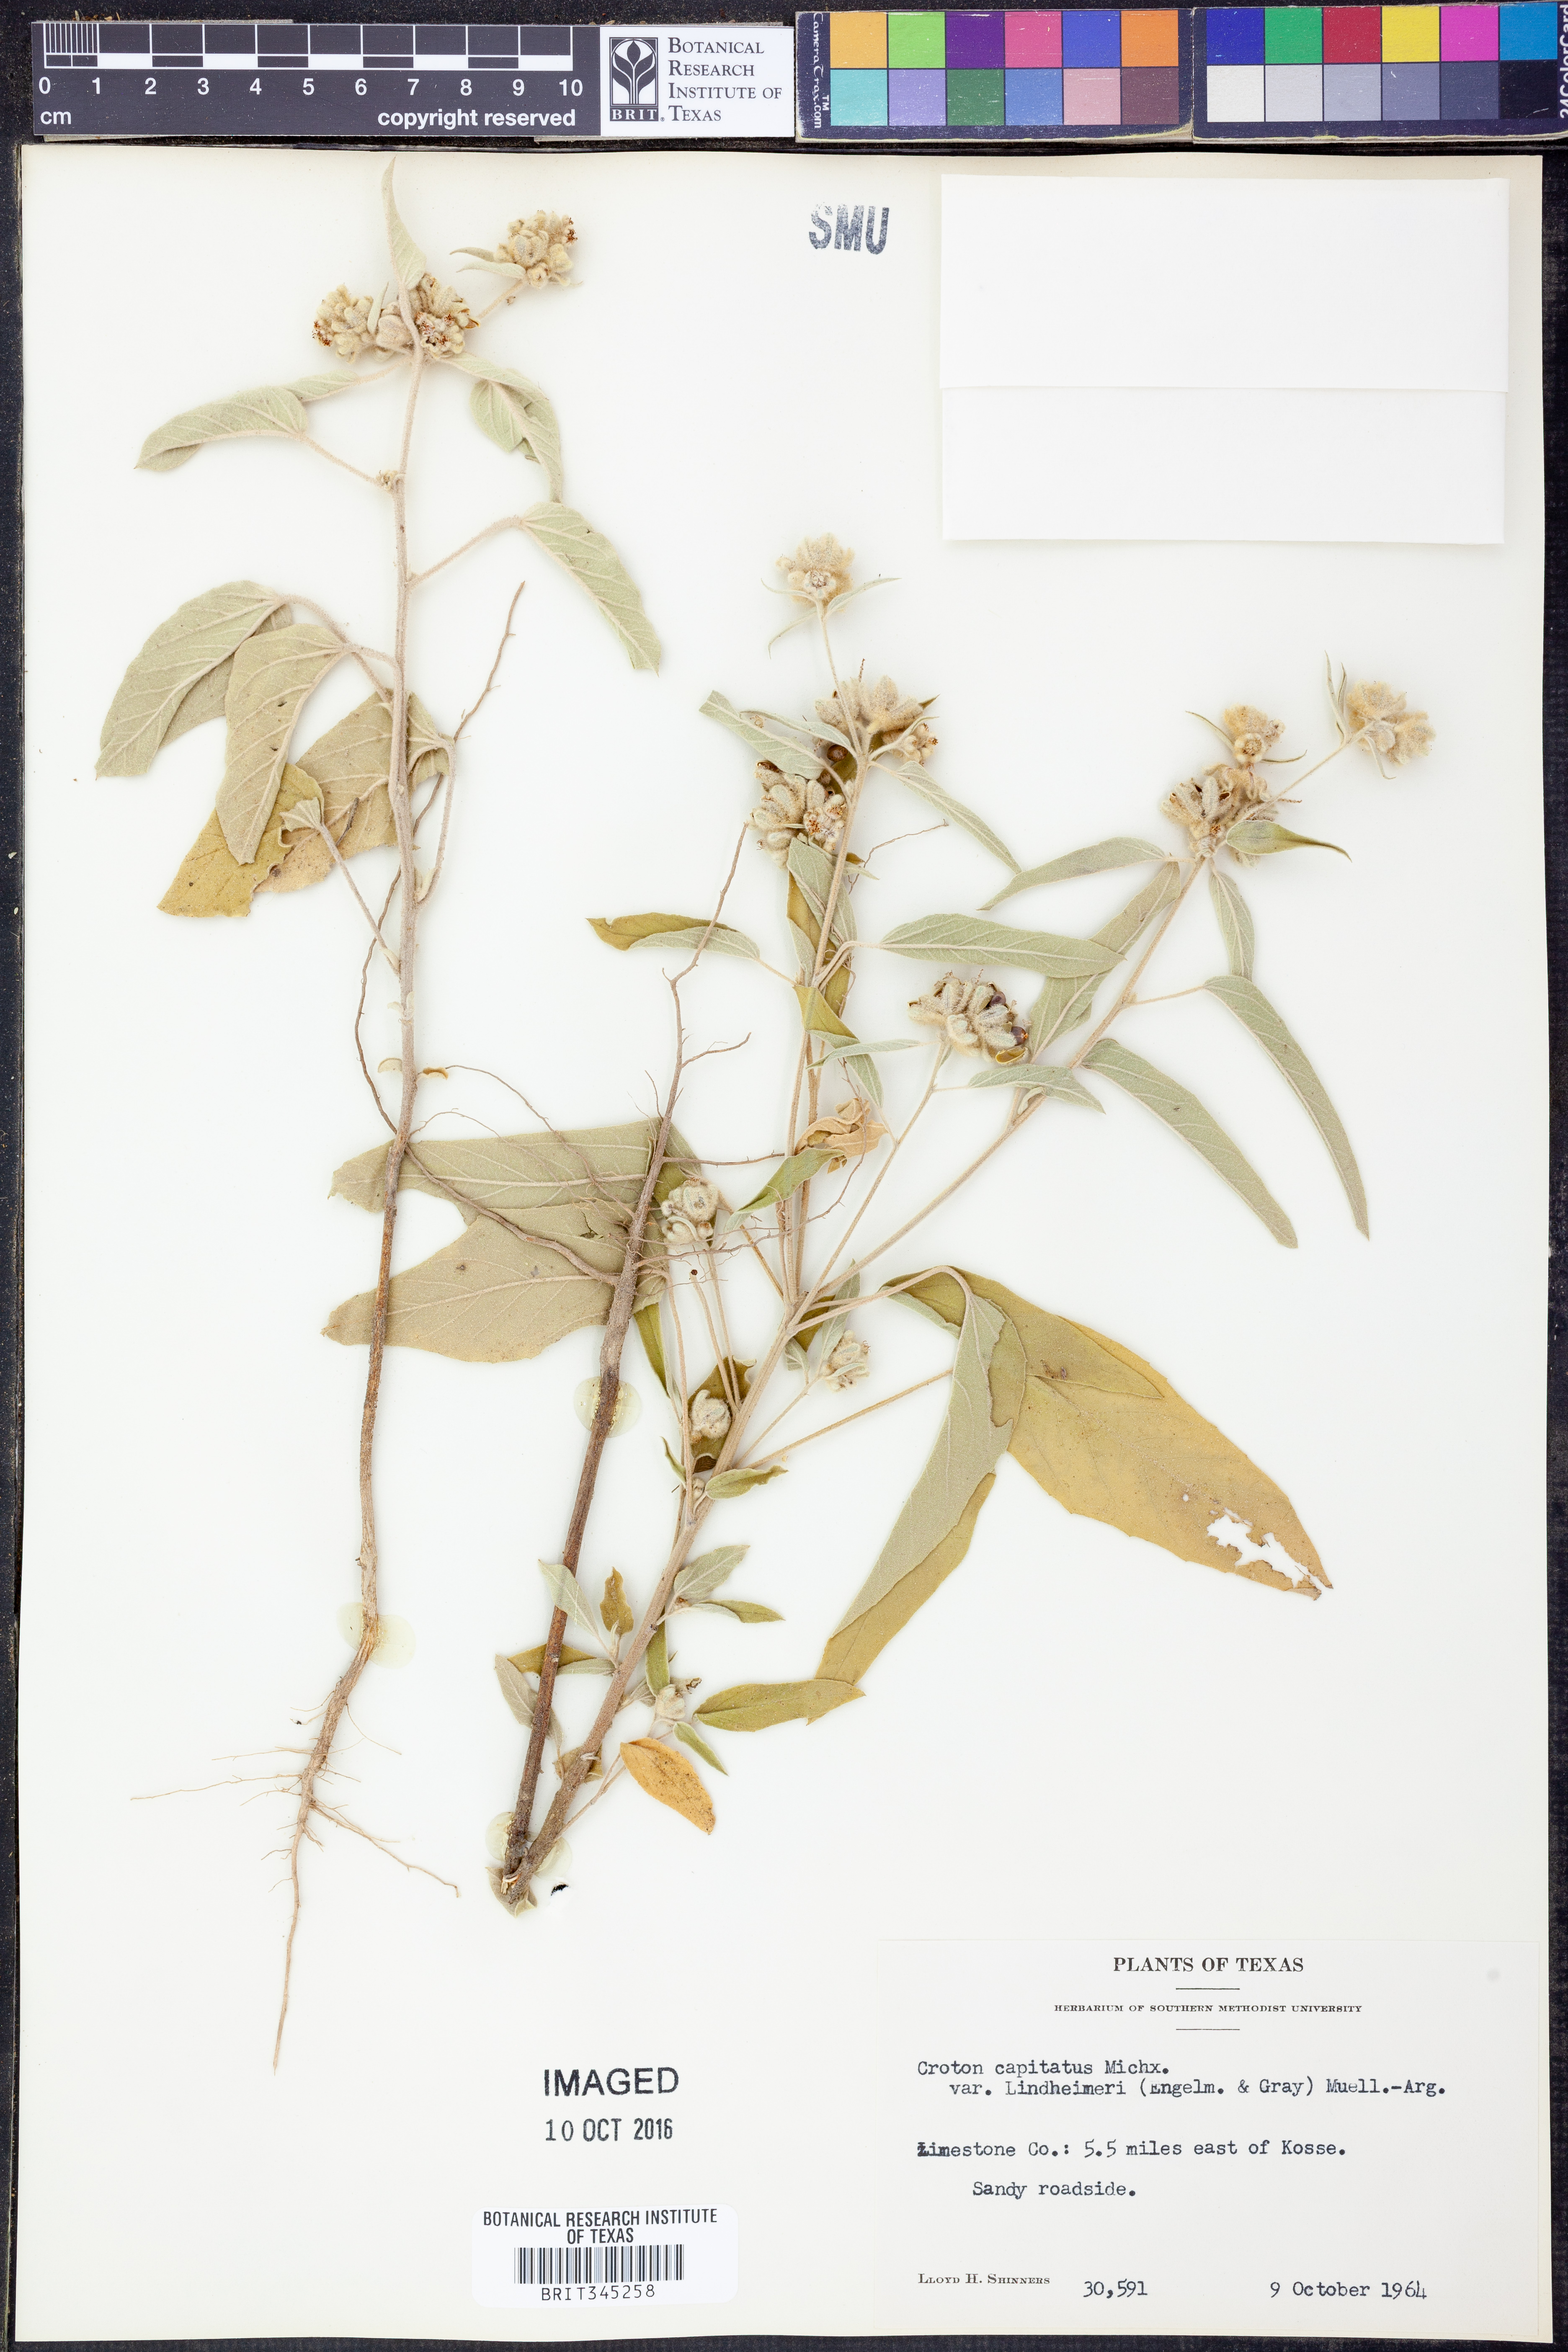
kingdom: Plantae
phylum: Tracheophyta
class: Magnoliopsida
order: Malpighiales
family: Euphorbiaceae
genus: Croton
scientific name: Croton lindheimeri
